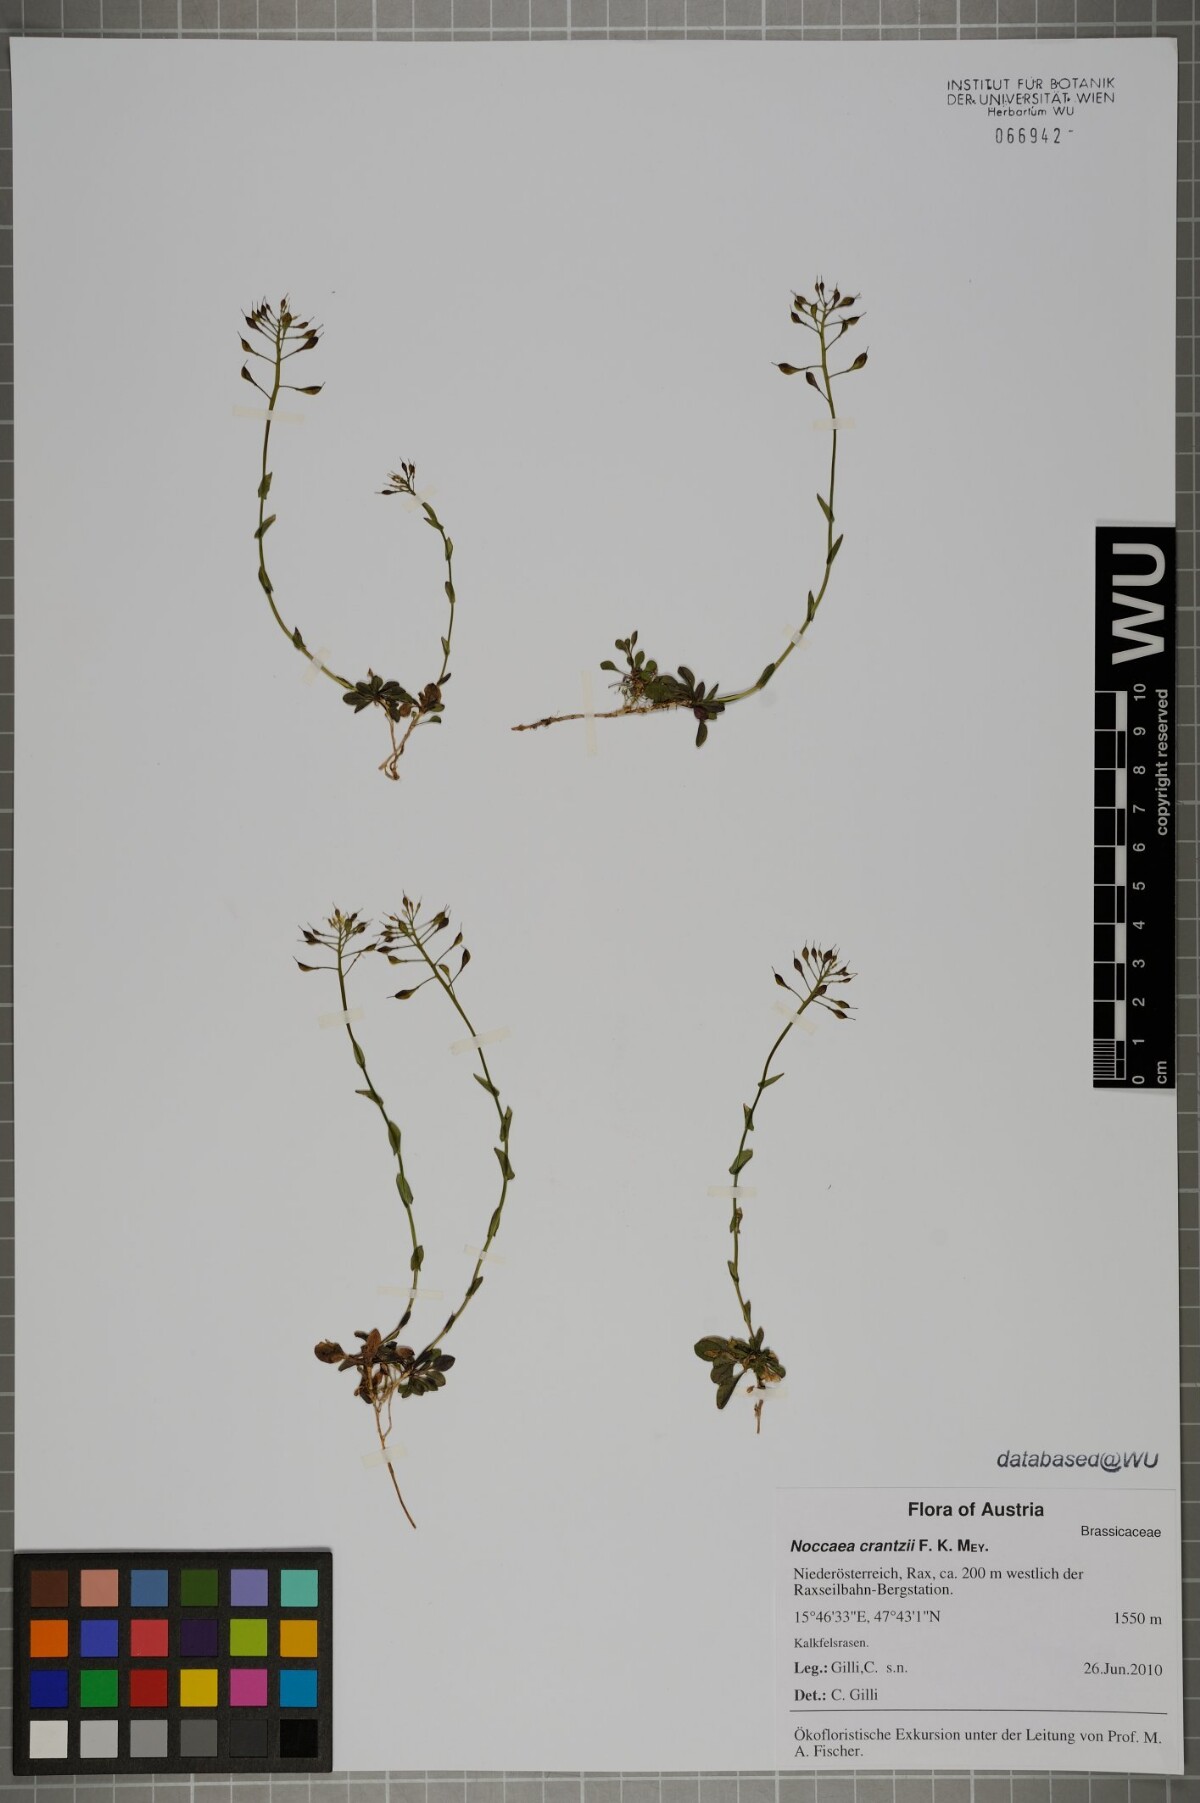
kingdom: Plantae
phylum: Tracheophyta
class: Magnoliopsida
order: Brassicales
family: Brassicaceae
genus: Noccaea
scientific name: Noccaea alpestris
